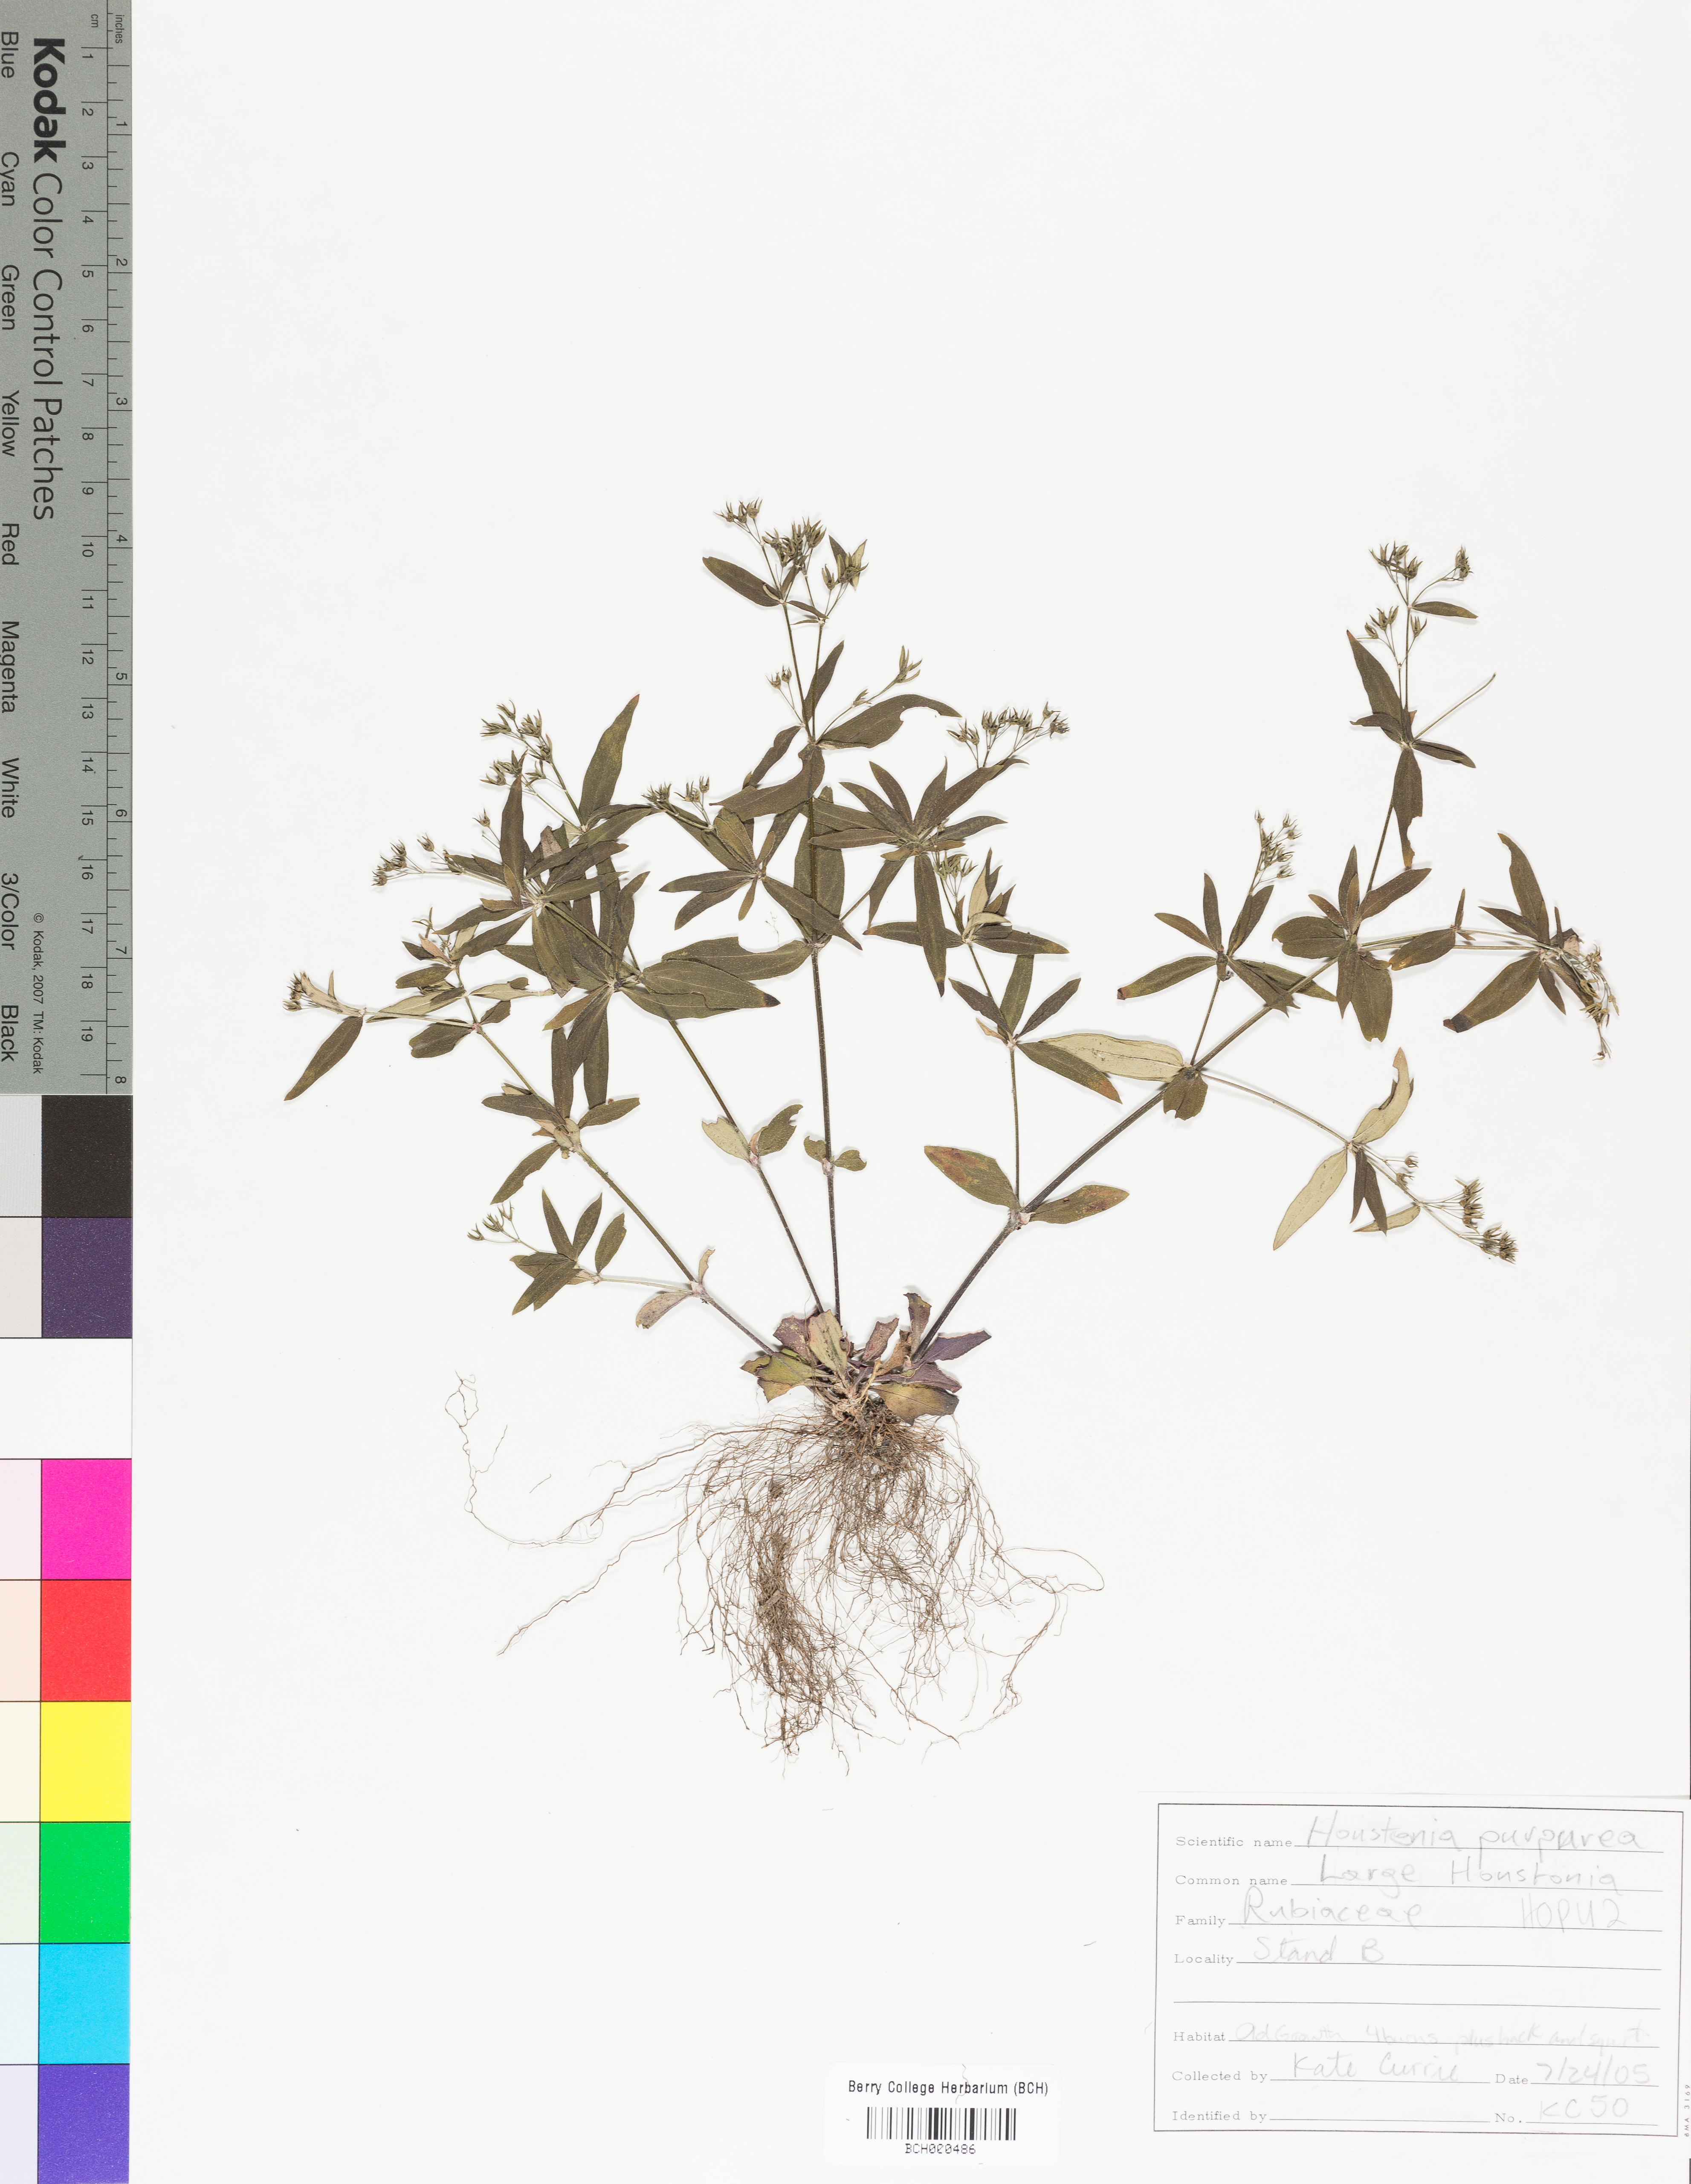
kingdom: Plantae
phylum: Tracheophyta
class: Magnoliopsida
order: Gentianales
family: Rubiaceae
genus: Houstonia
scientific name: Houstonia purpurea
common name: Summer bluet
